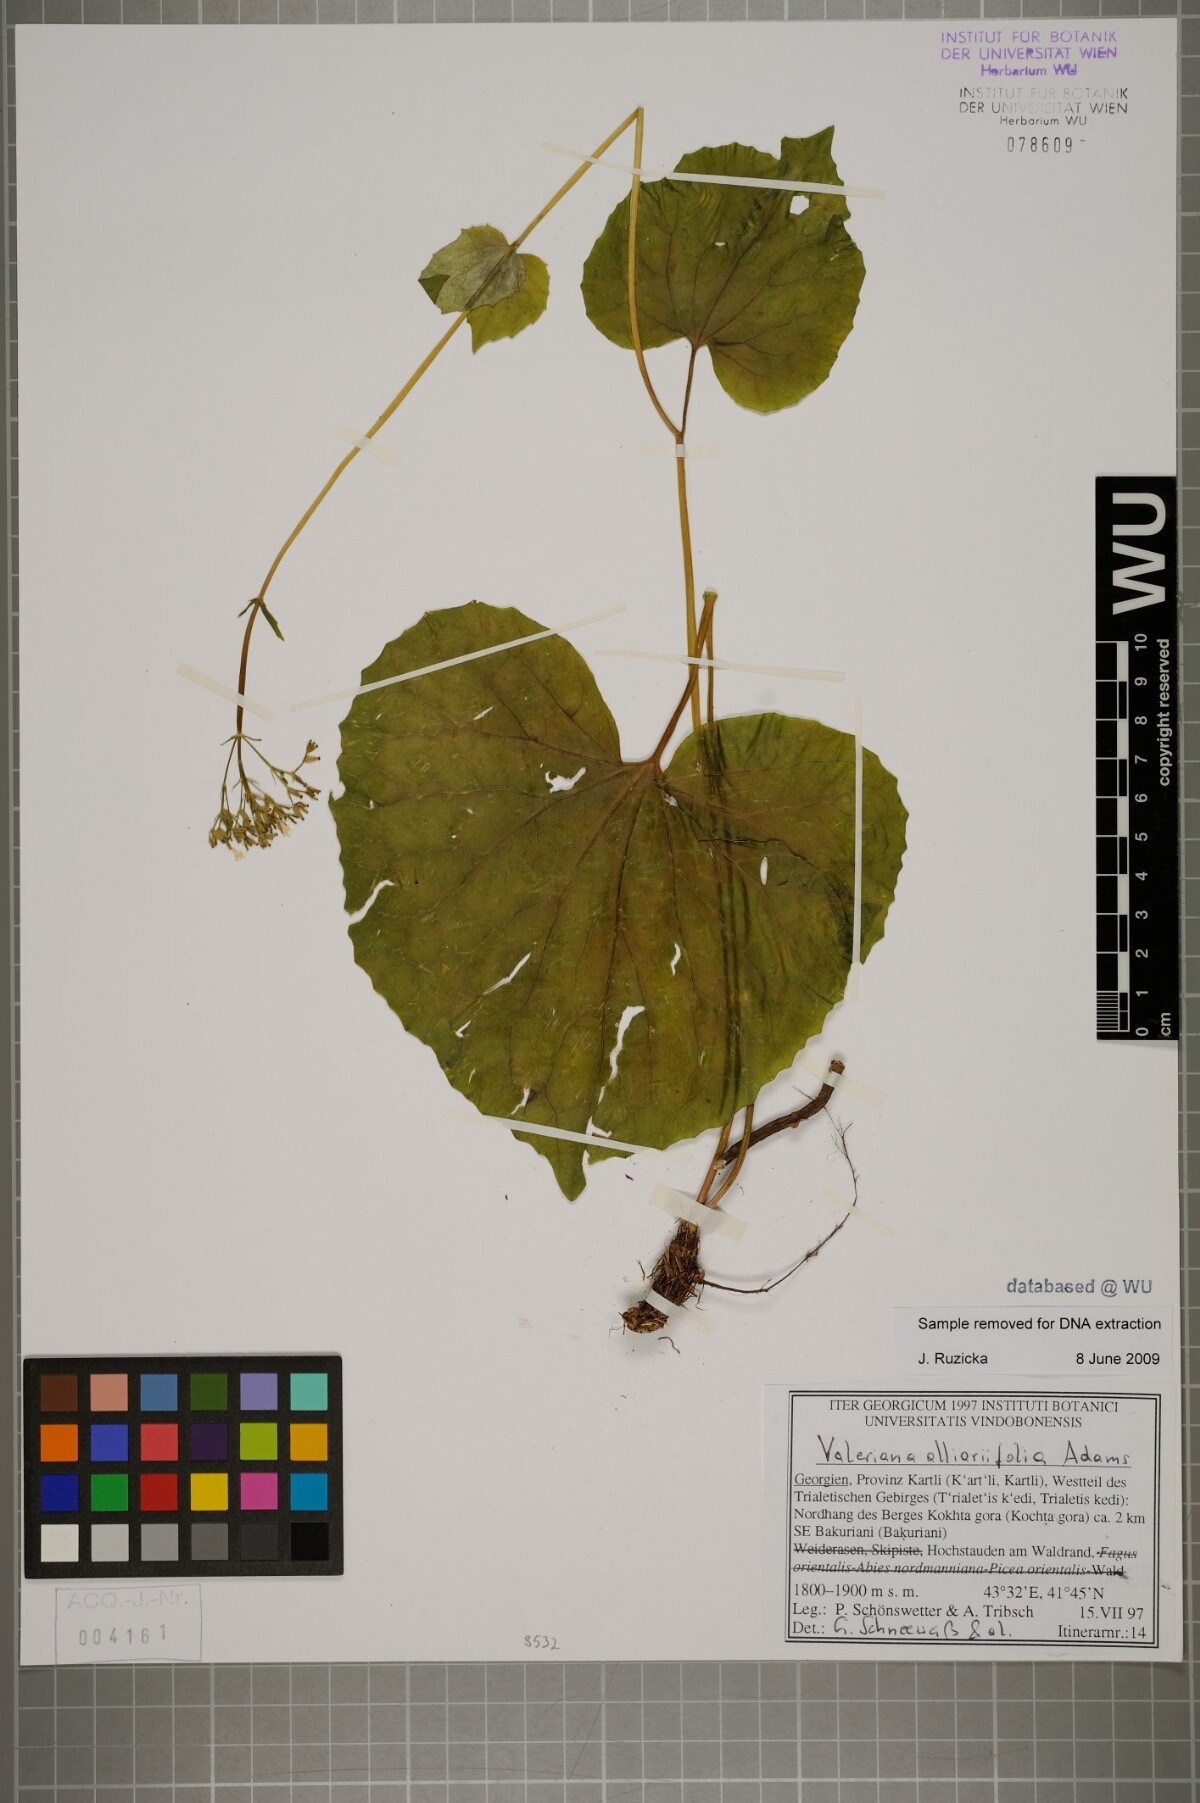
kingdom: Plantae
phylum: Tracheophyta
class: Magnoliopsida
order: Dipsacales
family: Caprifoliaceae
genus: Valeriana
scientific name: Valeriana alliariifolia
